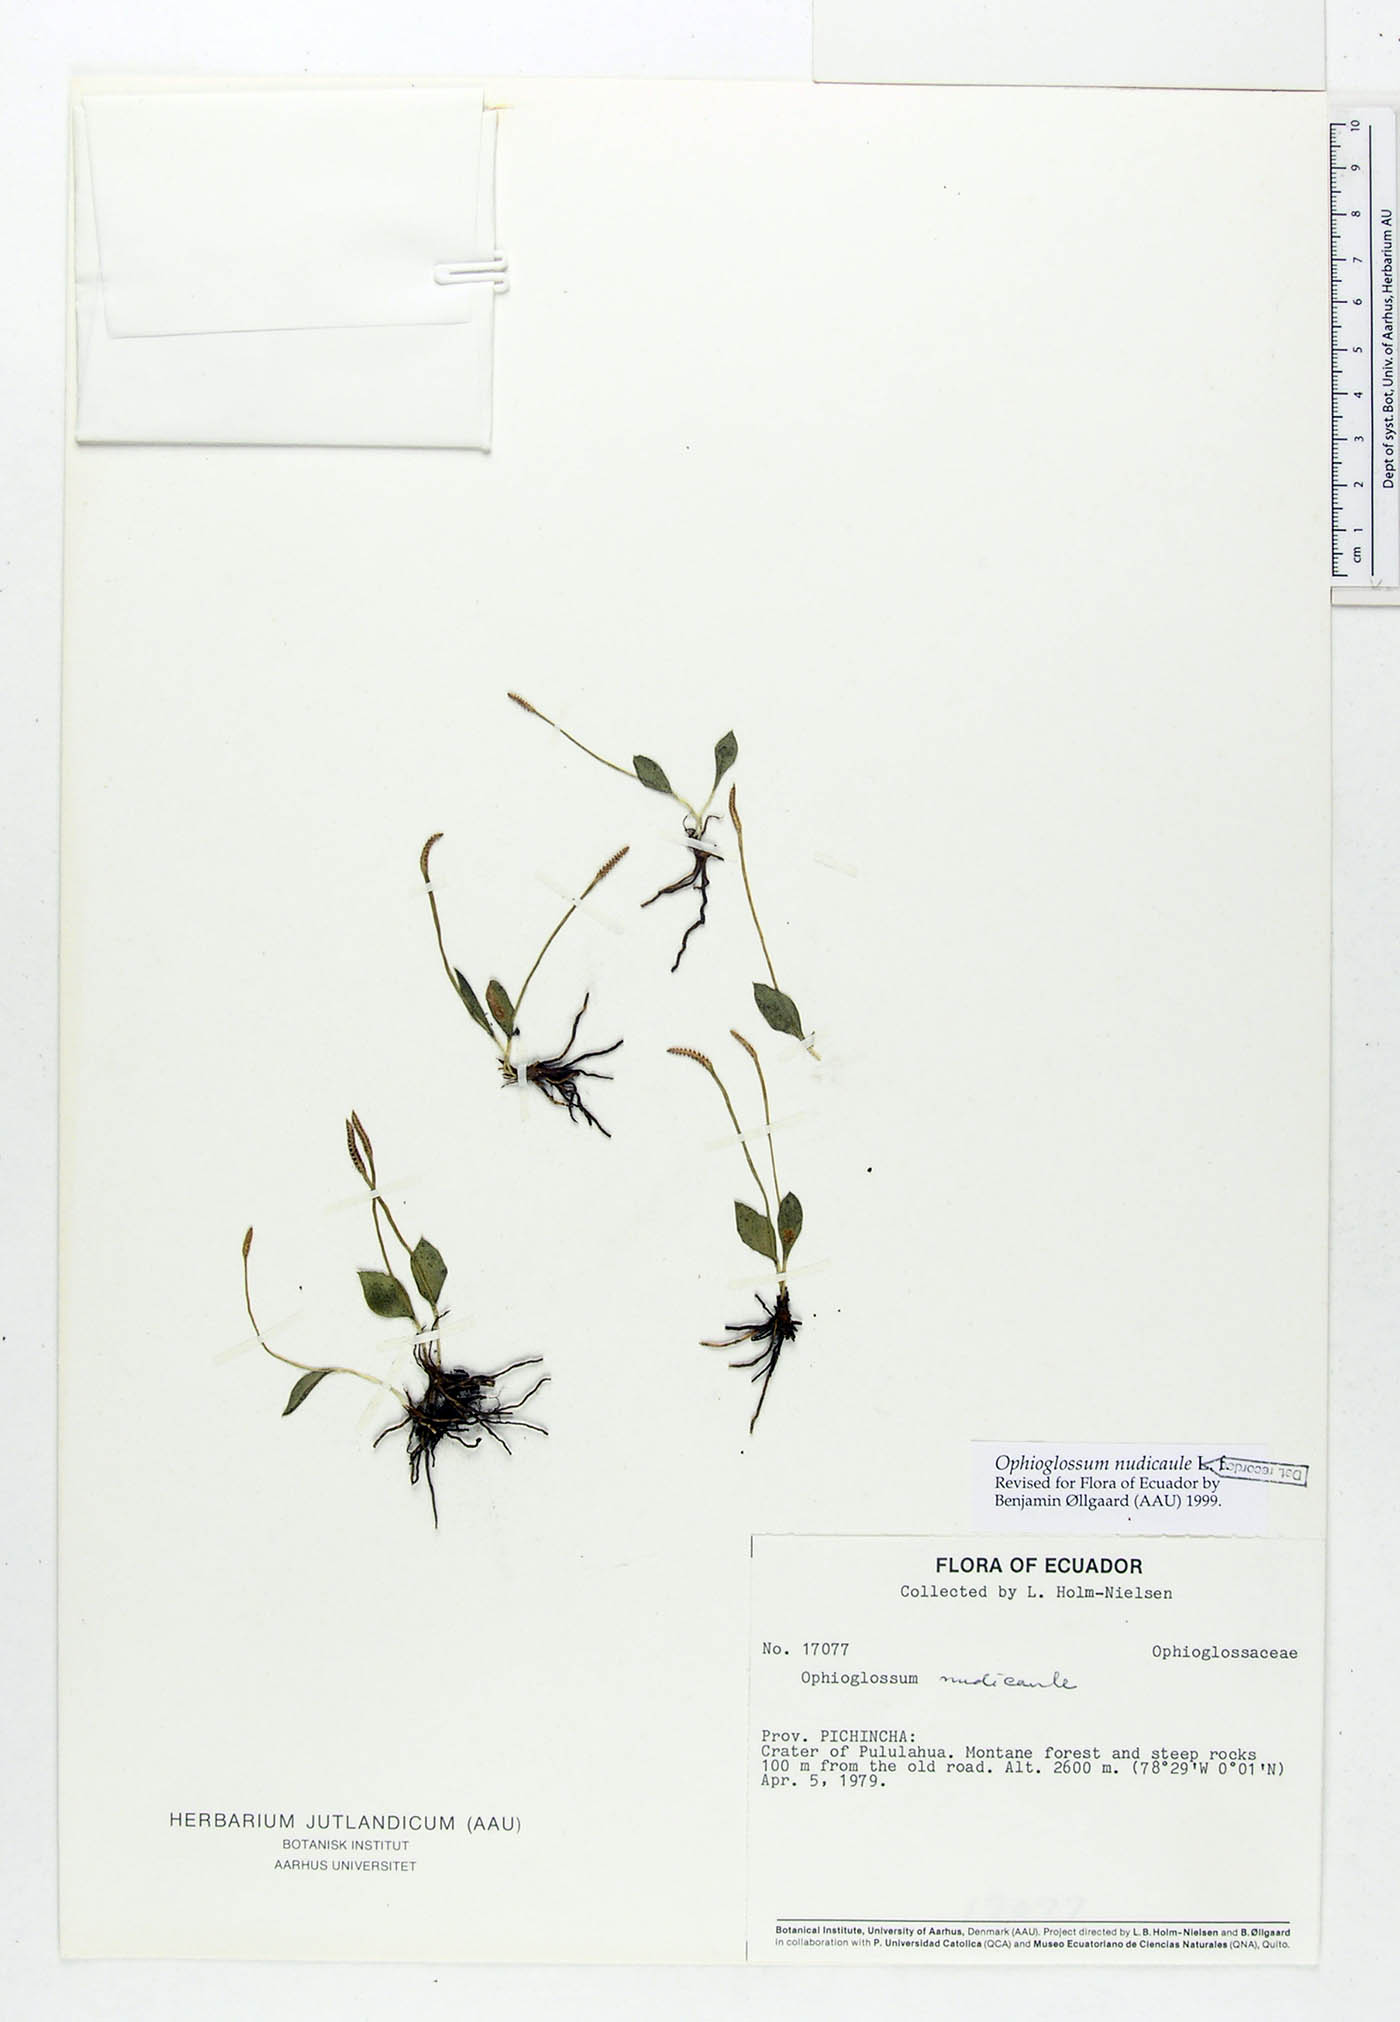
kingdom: Plantae
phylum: Tracheophyta
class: Polypodiopsida
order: Ophioglossales
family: Ophioglossaceae
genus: Ophioglossum
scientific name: Ophioglossum nudicaule
